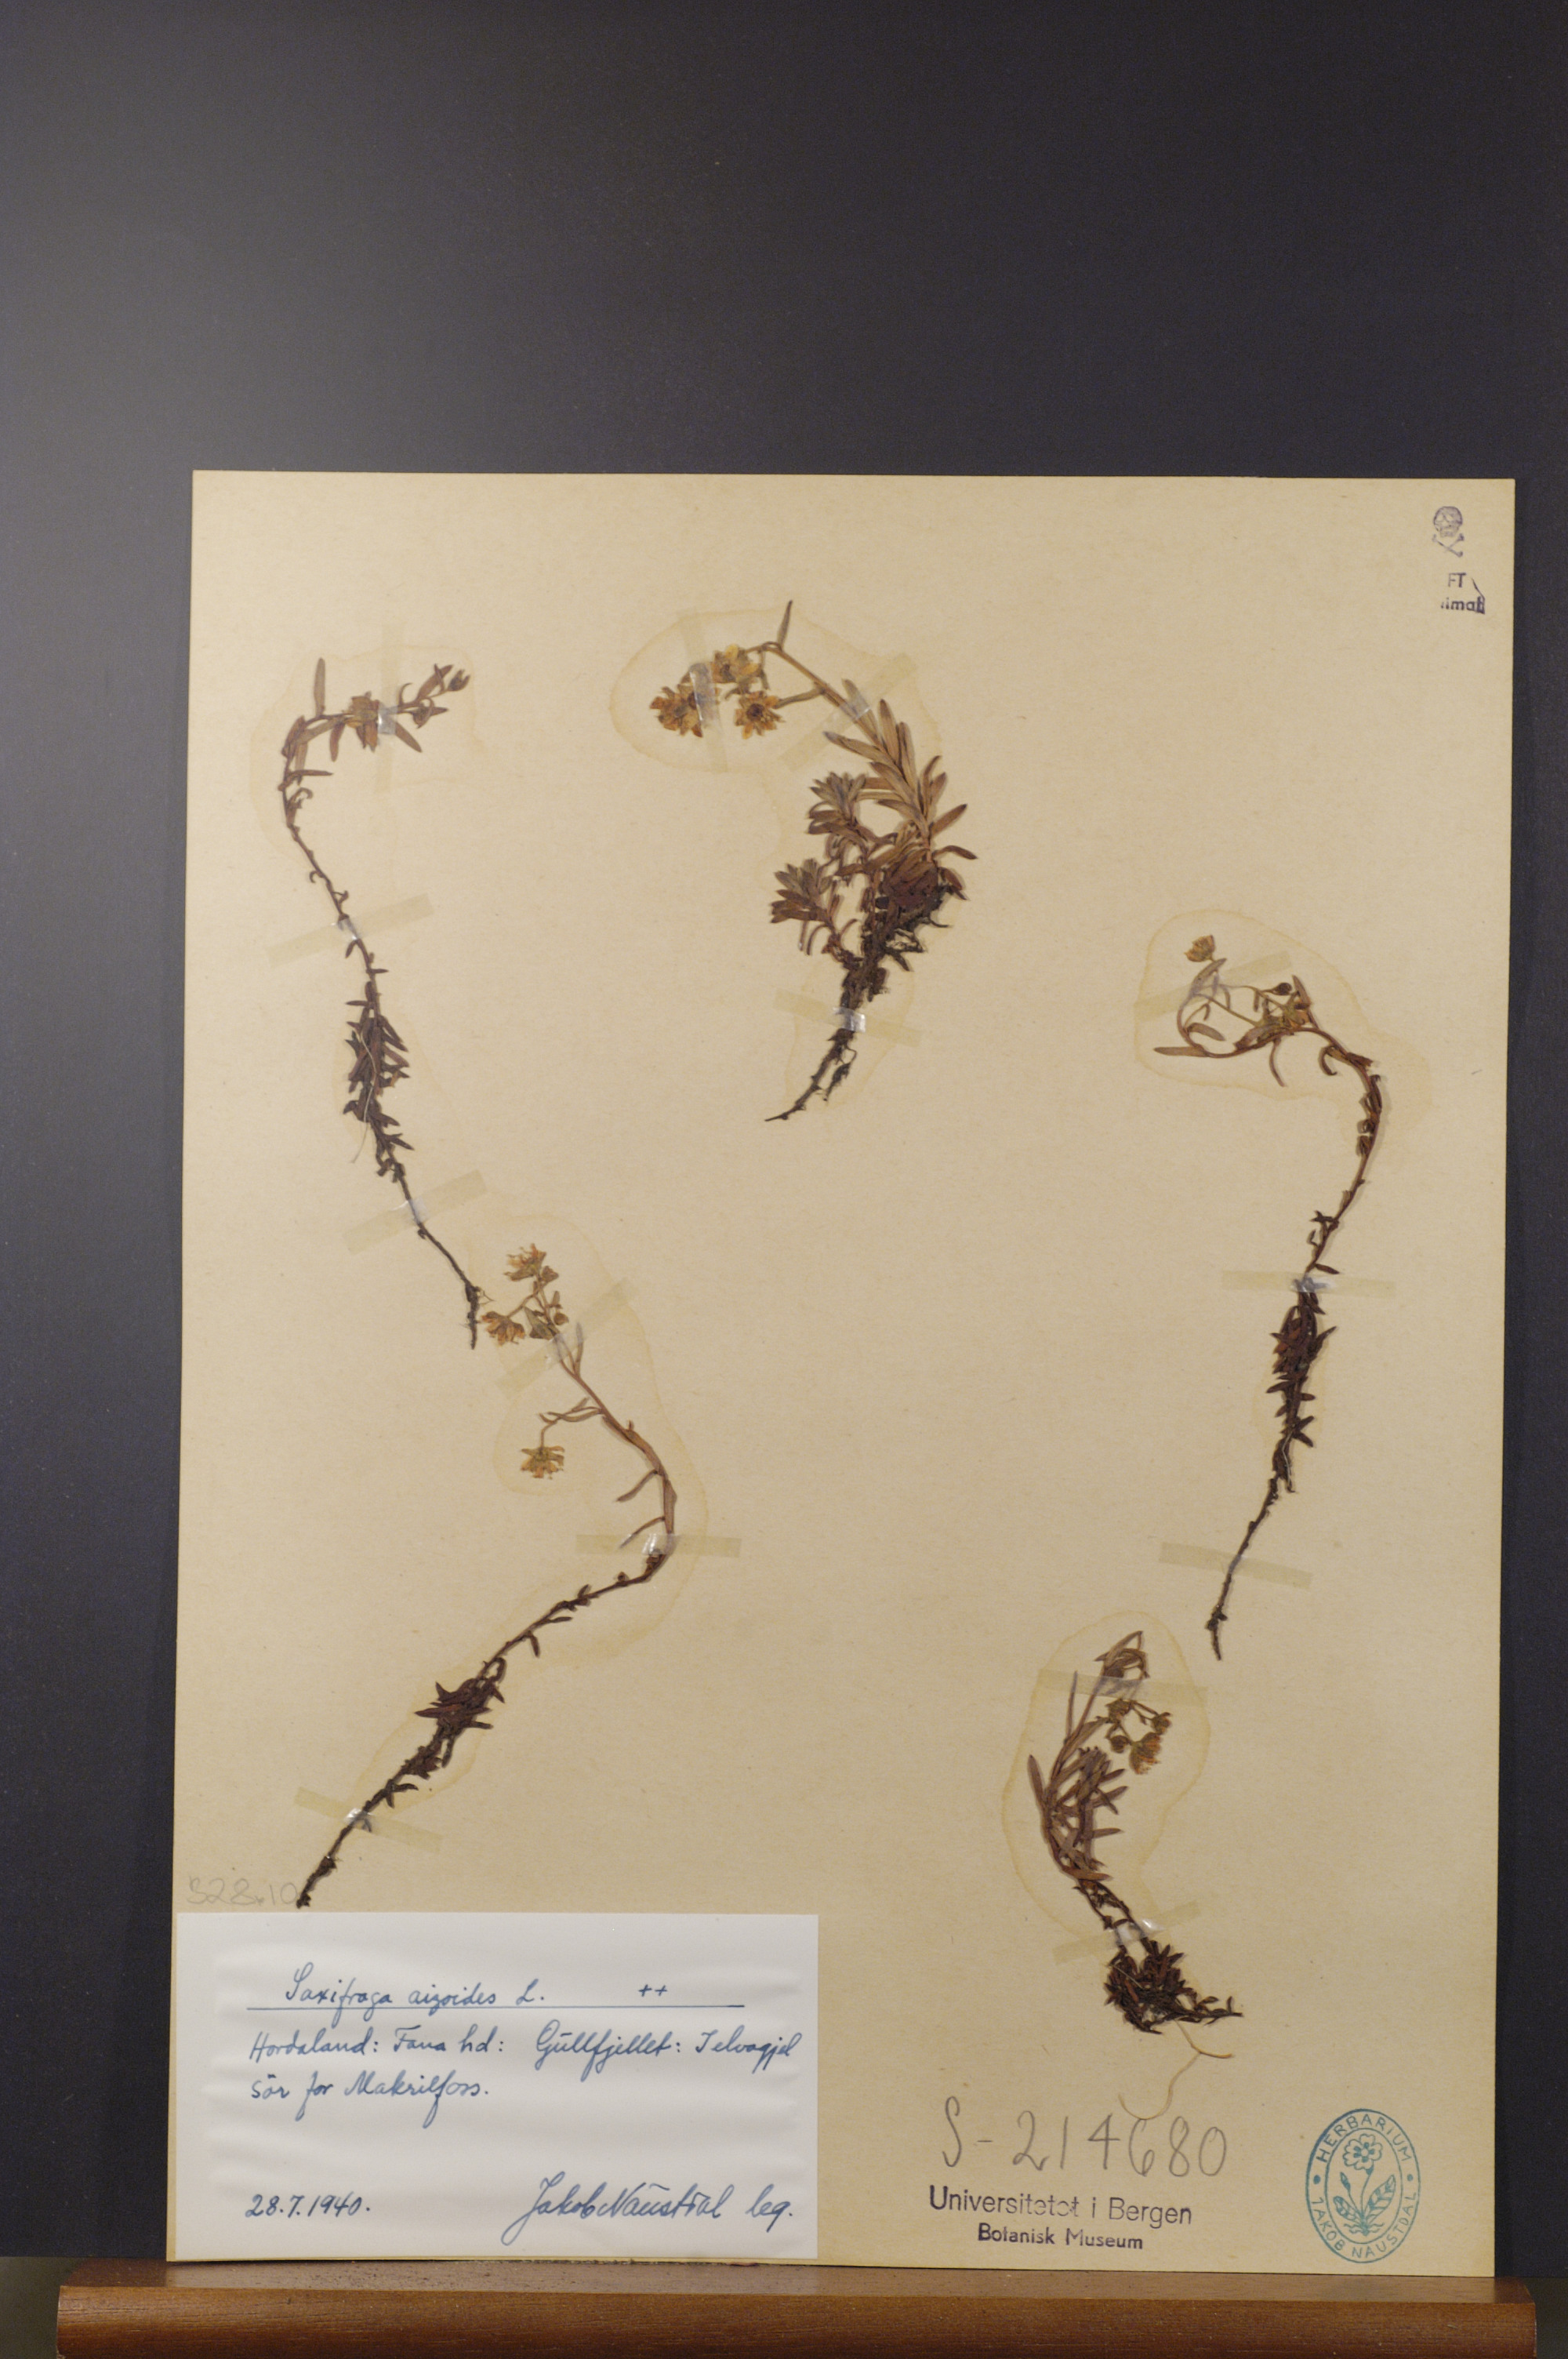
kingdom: Plantae
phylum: Tracheophyta
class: Magnoliopsida
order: Saxifragales
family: Saxifragaceae
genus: Saxifraga
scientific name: Saxifraga aizoides
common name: Yellow mountain saxifrage
